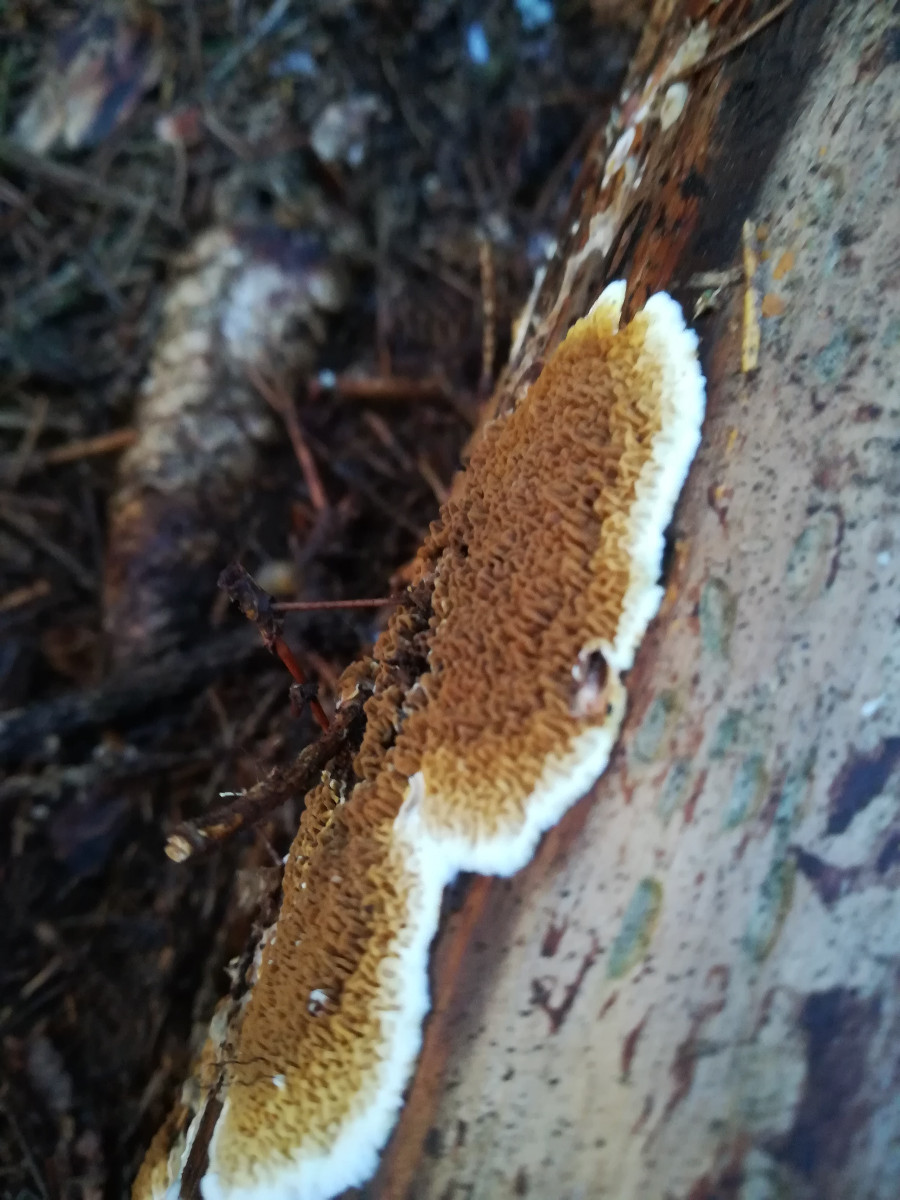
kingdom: Fungi
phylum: Basidiomycota
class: Agaricomycetes
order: Boletales
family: Serpulaceae
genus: Serpula
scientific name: Serpula himantioides
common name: tyndkødet hussvamp
